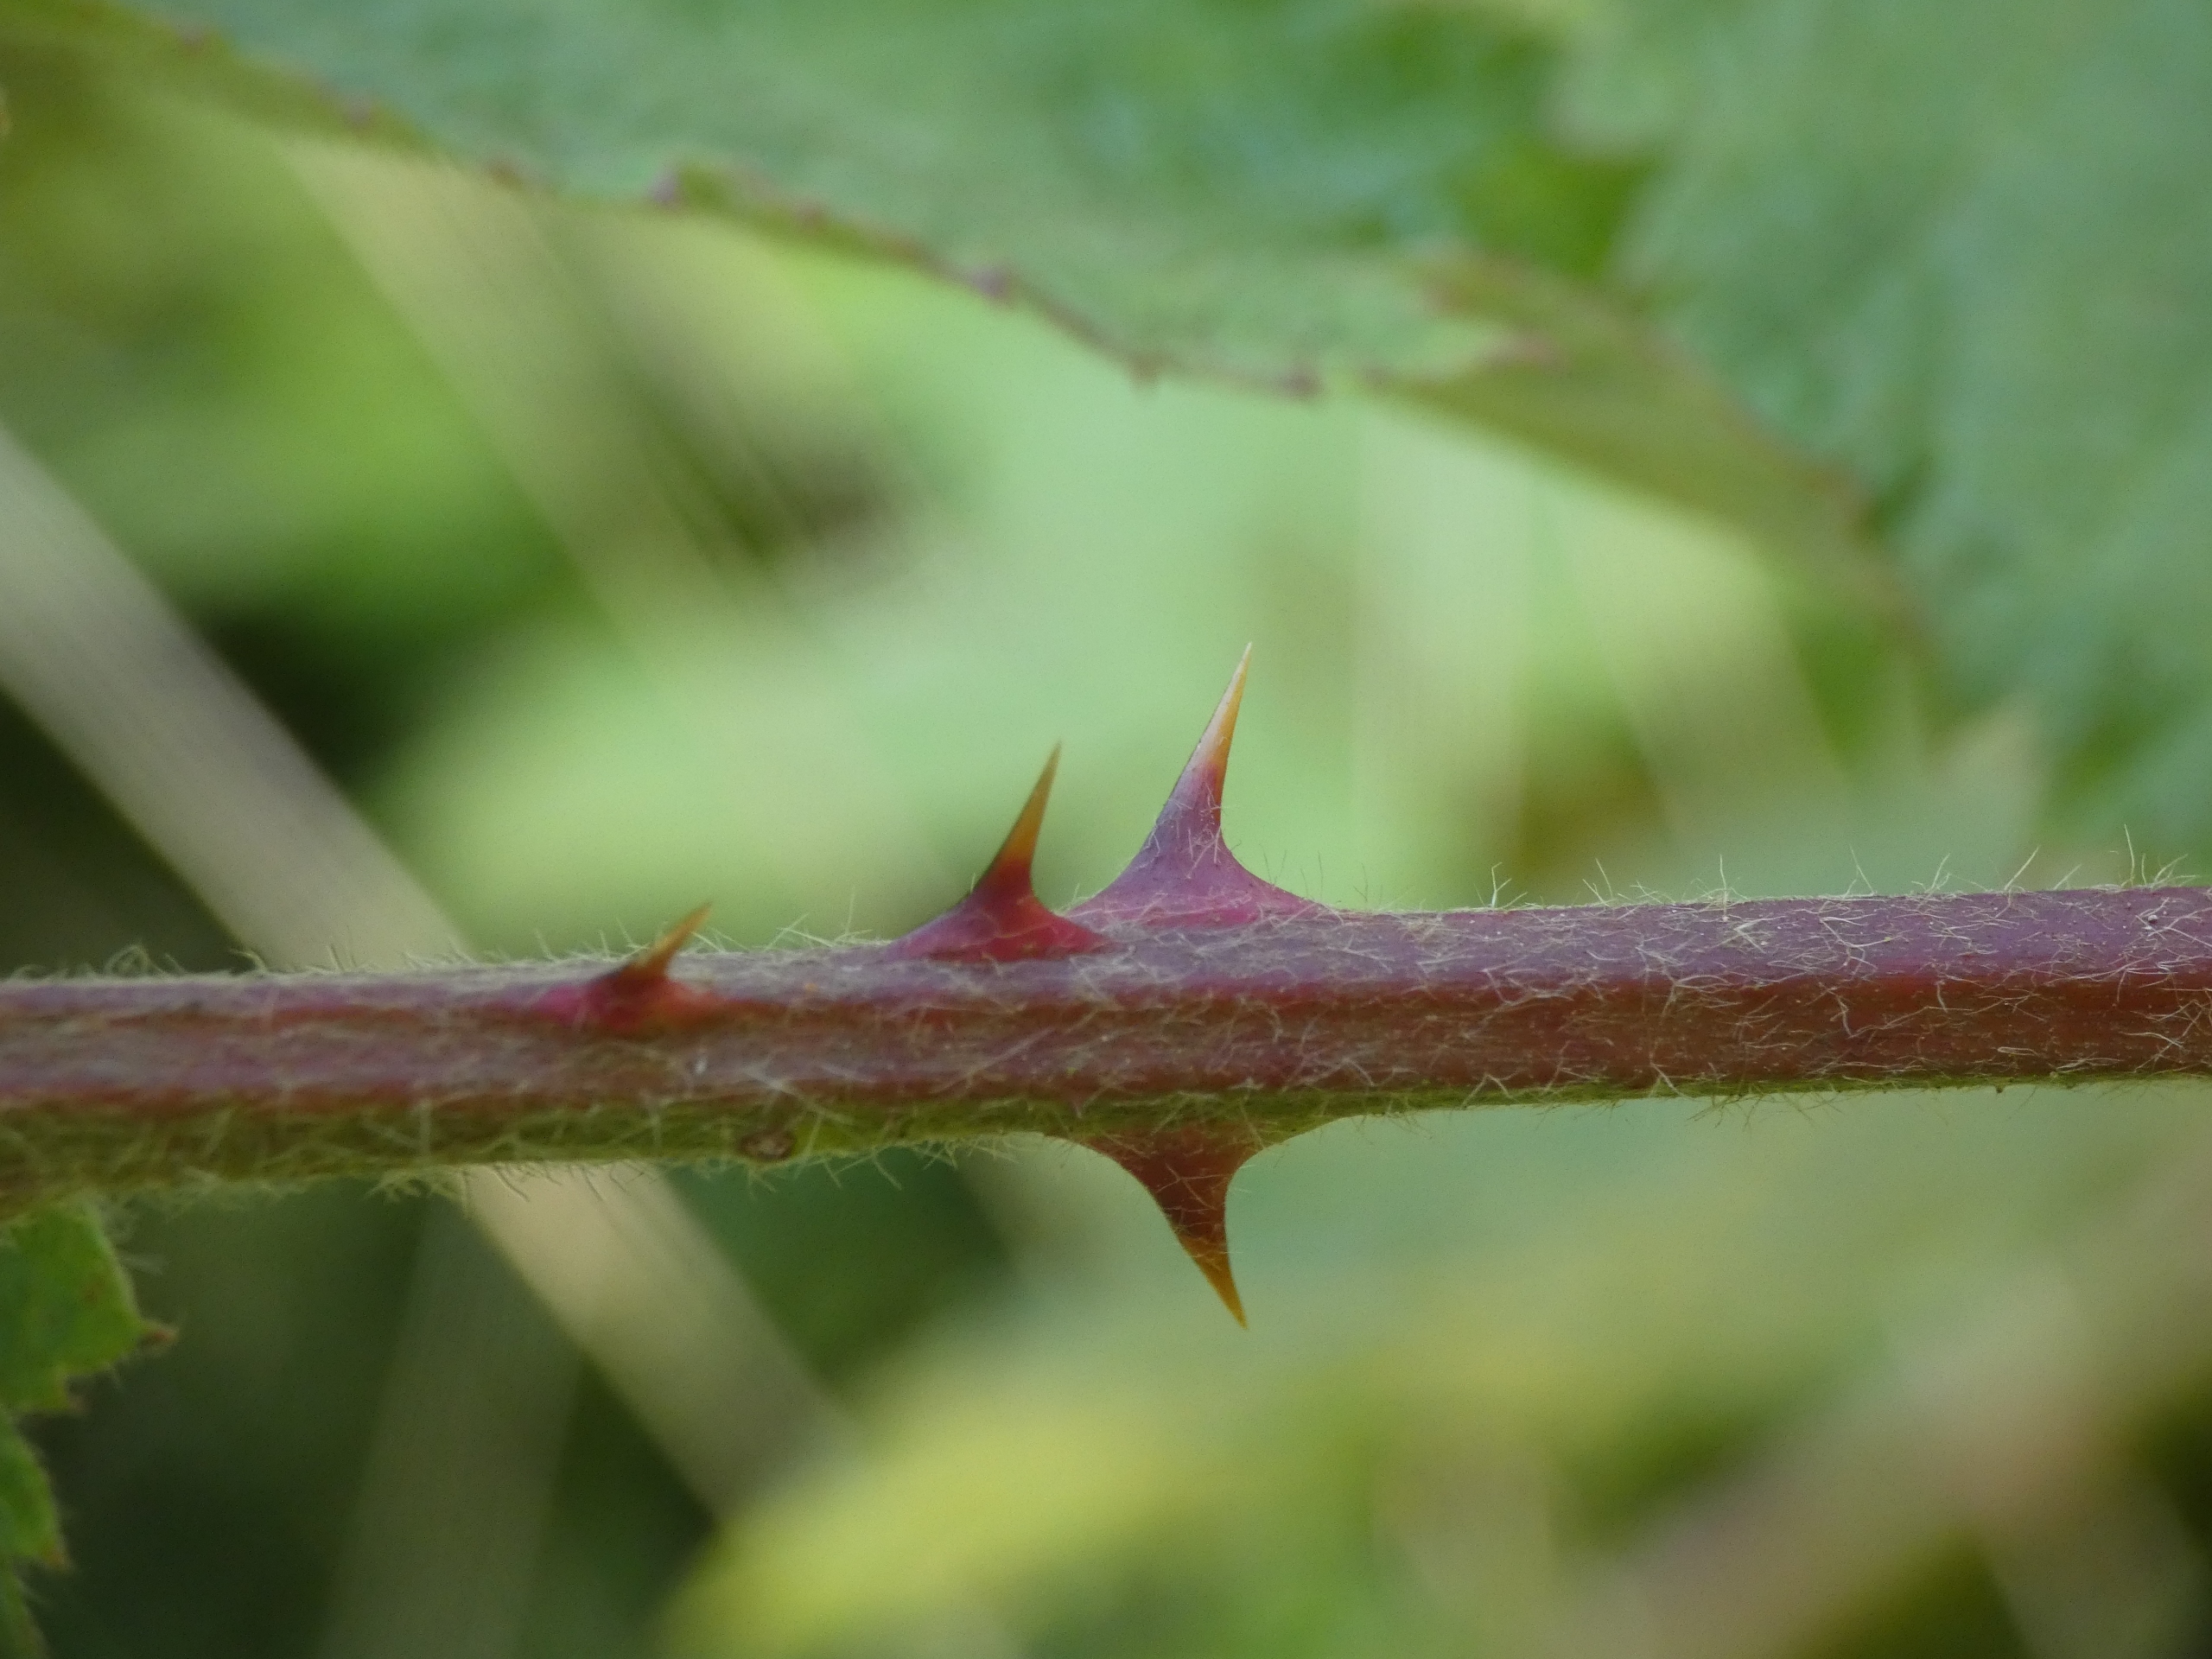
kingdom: Plantae
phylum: Tracheophyta
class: Magnoliopsida
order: Rosales
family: Rosaceae
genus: Rubus
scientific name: Rubus
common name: Klyngerslægten
